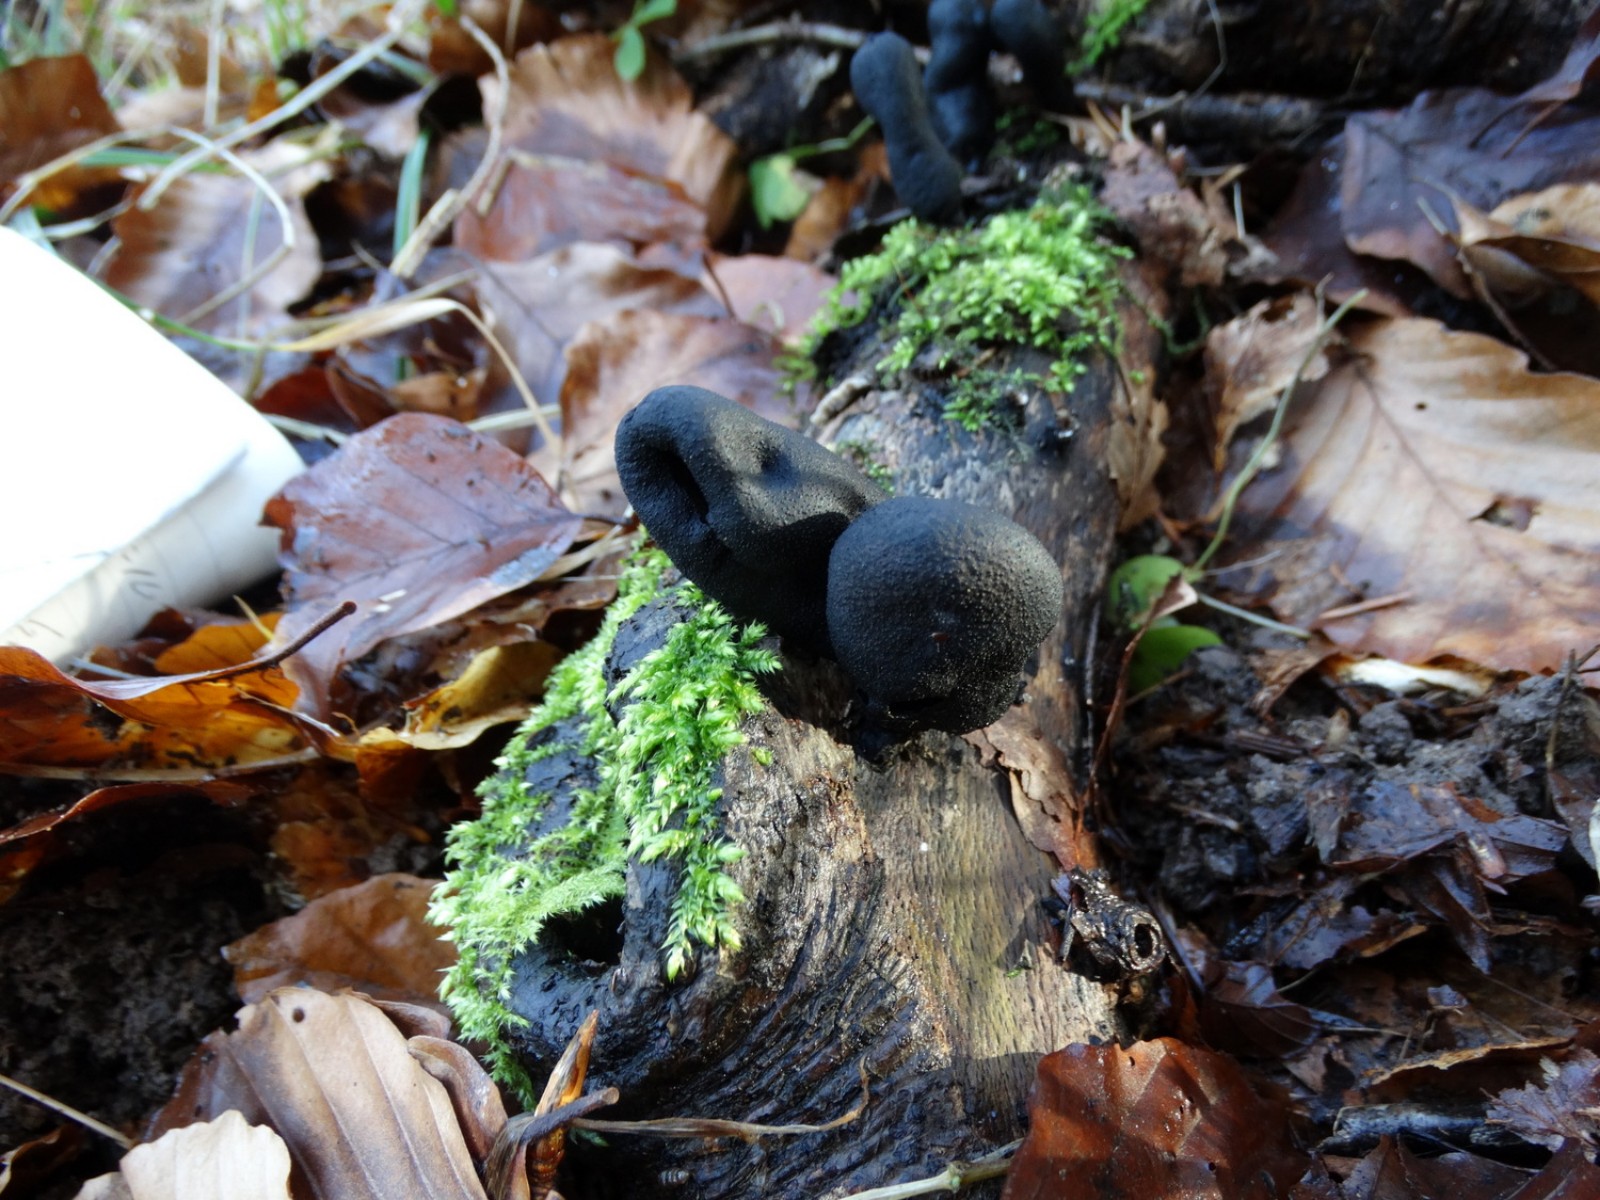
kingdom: Fungi
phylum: Ascomycota
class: Sordariomycetes
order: Xylariales
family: Xylariaceae
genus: Xylaria
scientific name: Xylaria polymorpha
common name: kølle-stødsvamp
